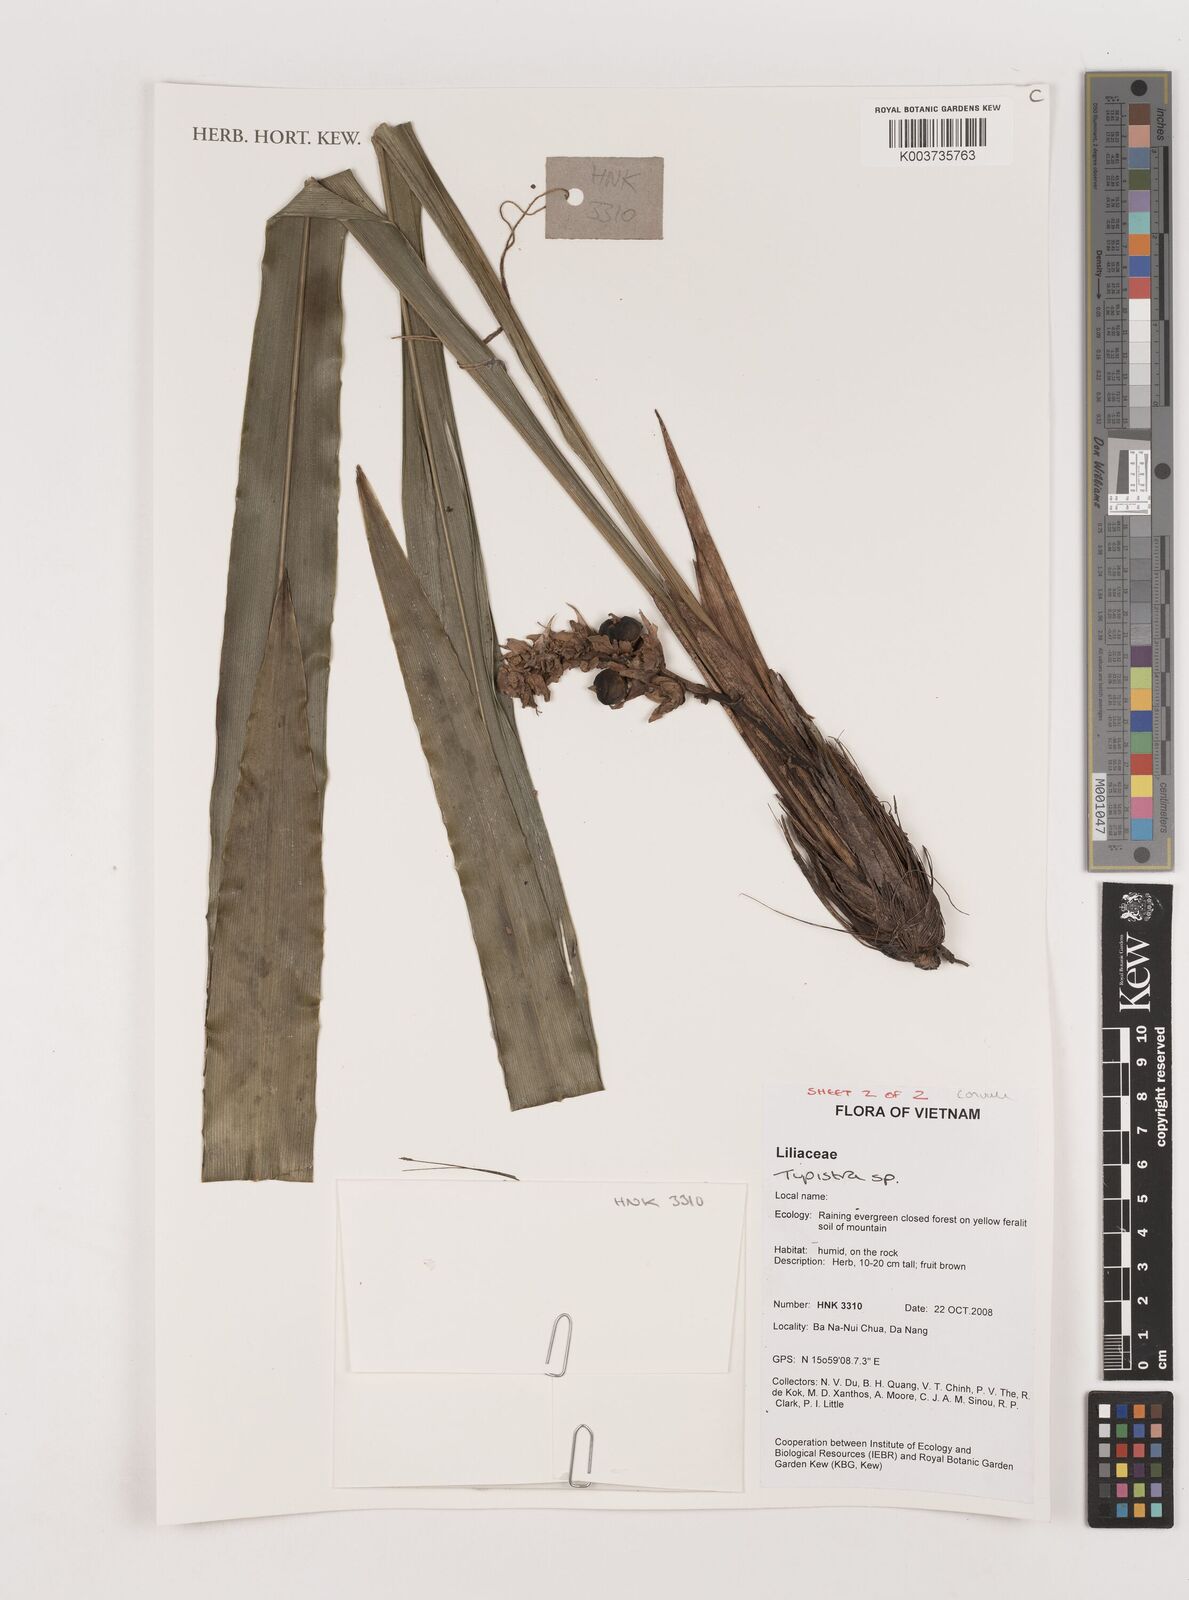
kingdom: Plantae
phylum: Tracheophyta
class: Liliopsida
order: Asparagales
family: Asparagaceae
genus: Tupistra
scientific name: Tupistra
